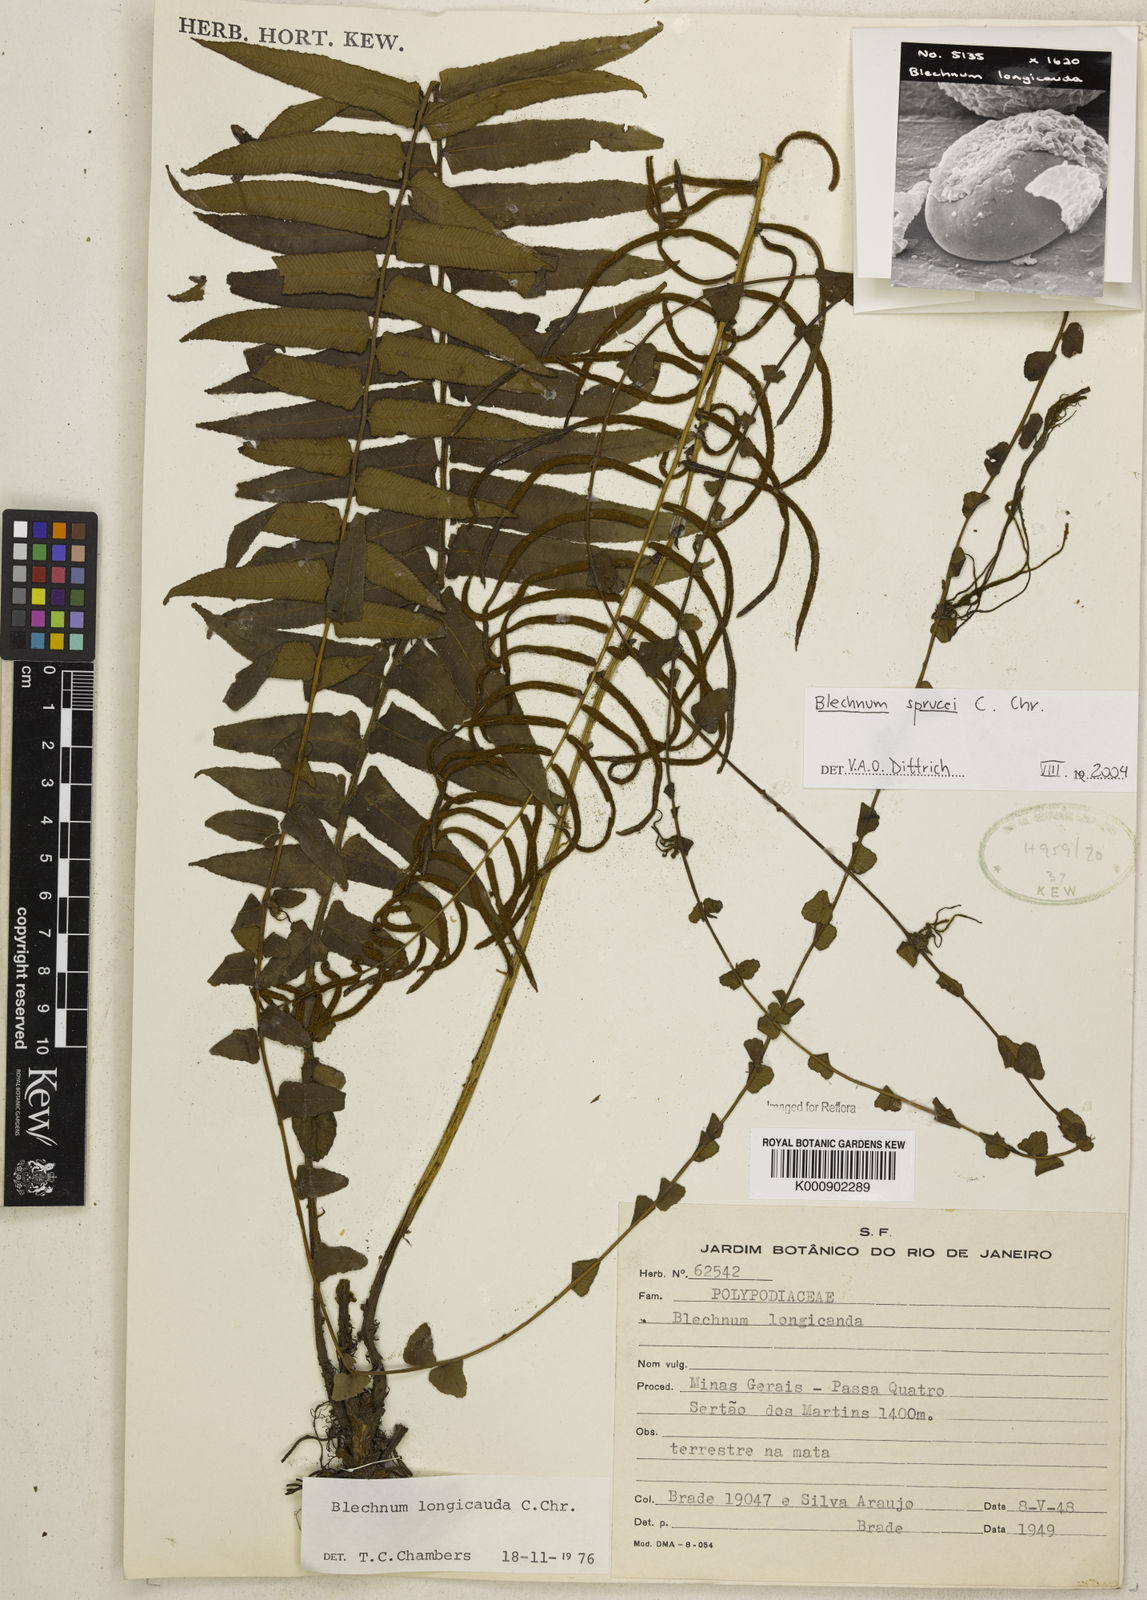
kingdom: Plantae
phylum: Tracheophyta
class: Polypodiopsida
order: Polypodiales
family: Blechnaceae
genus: Cranfillia
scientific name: Cranfillia caudata
